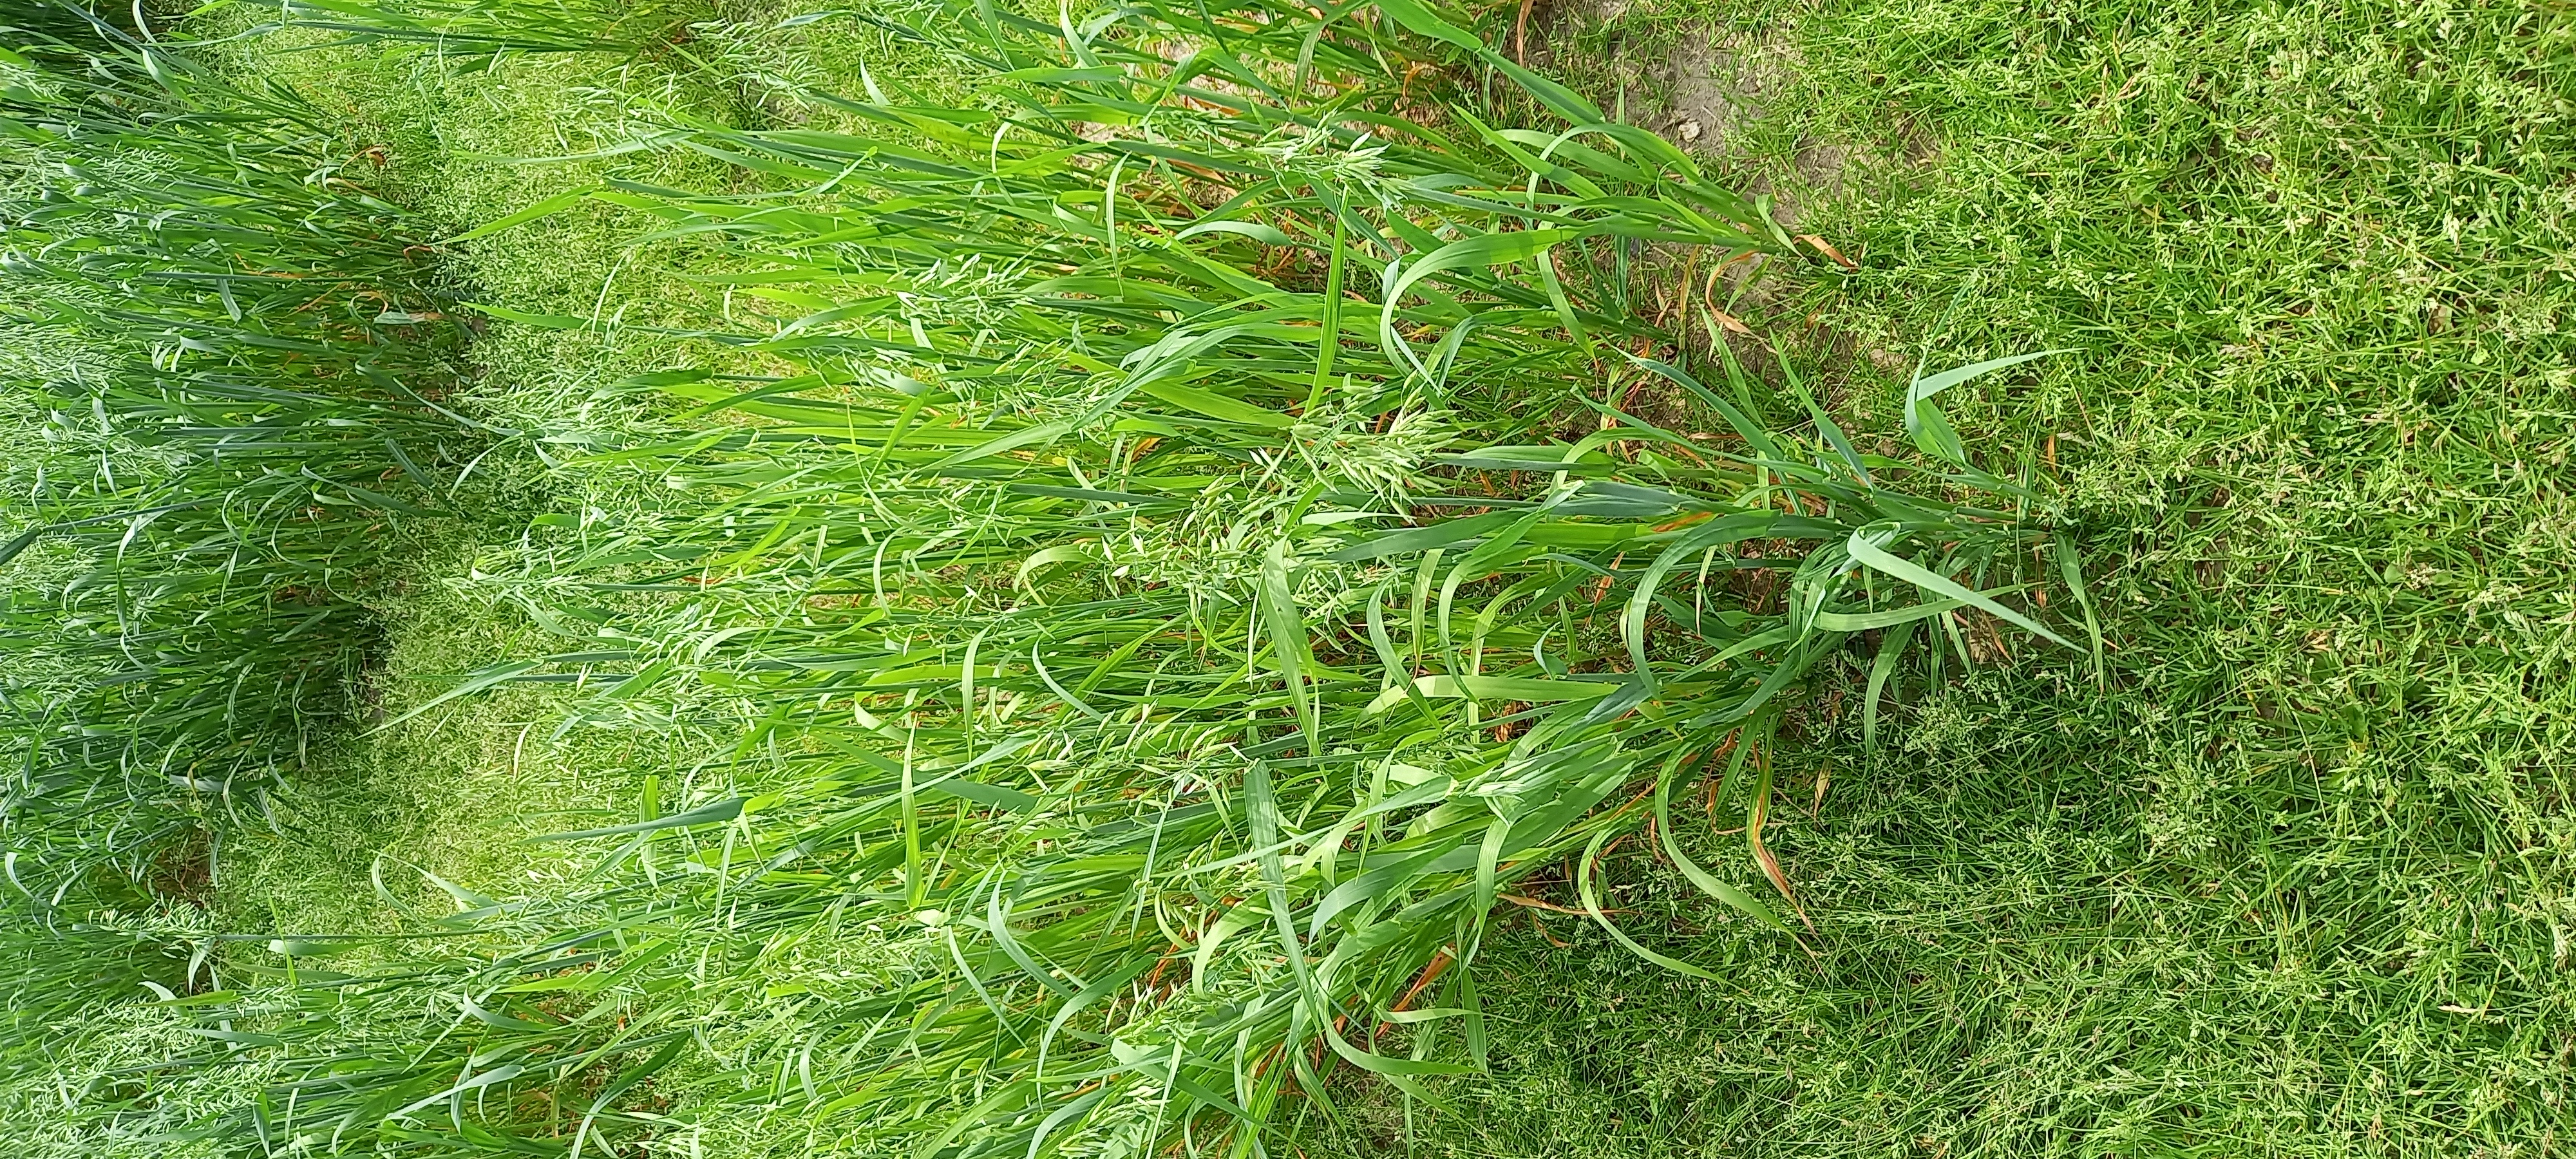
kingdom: Plantae
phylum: Tracheophyta
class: Liliopsida
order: Poales
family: Poaceae
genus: Avena
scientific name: Avena sativa
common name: Oat
